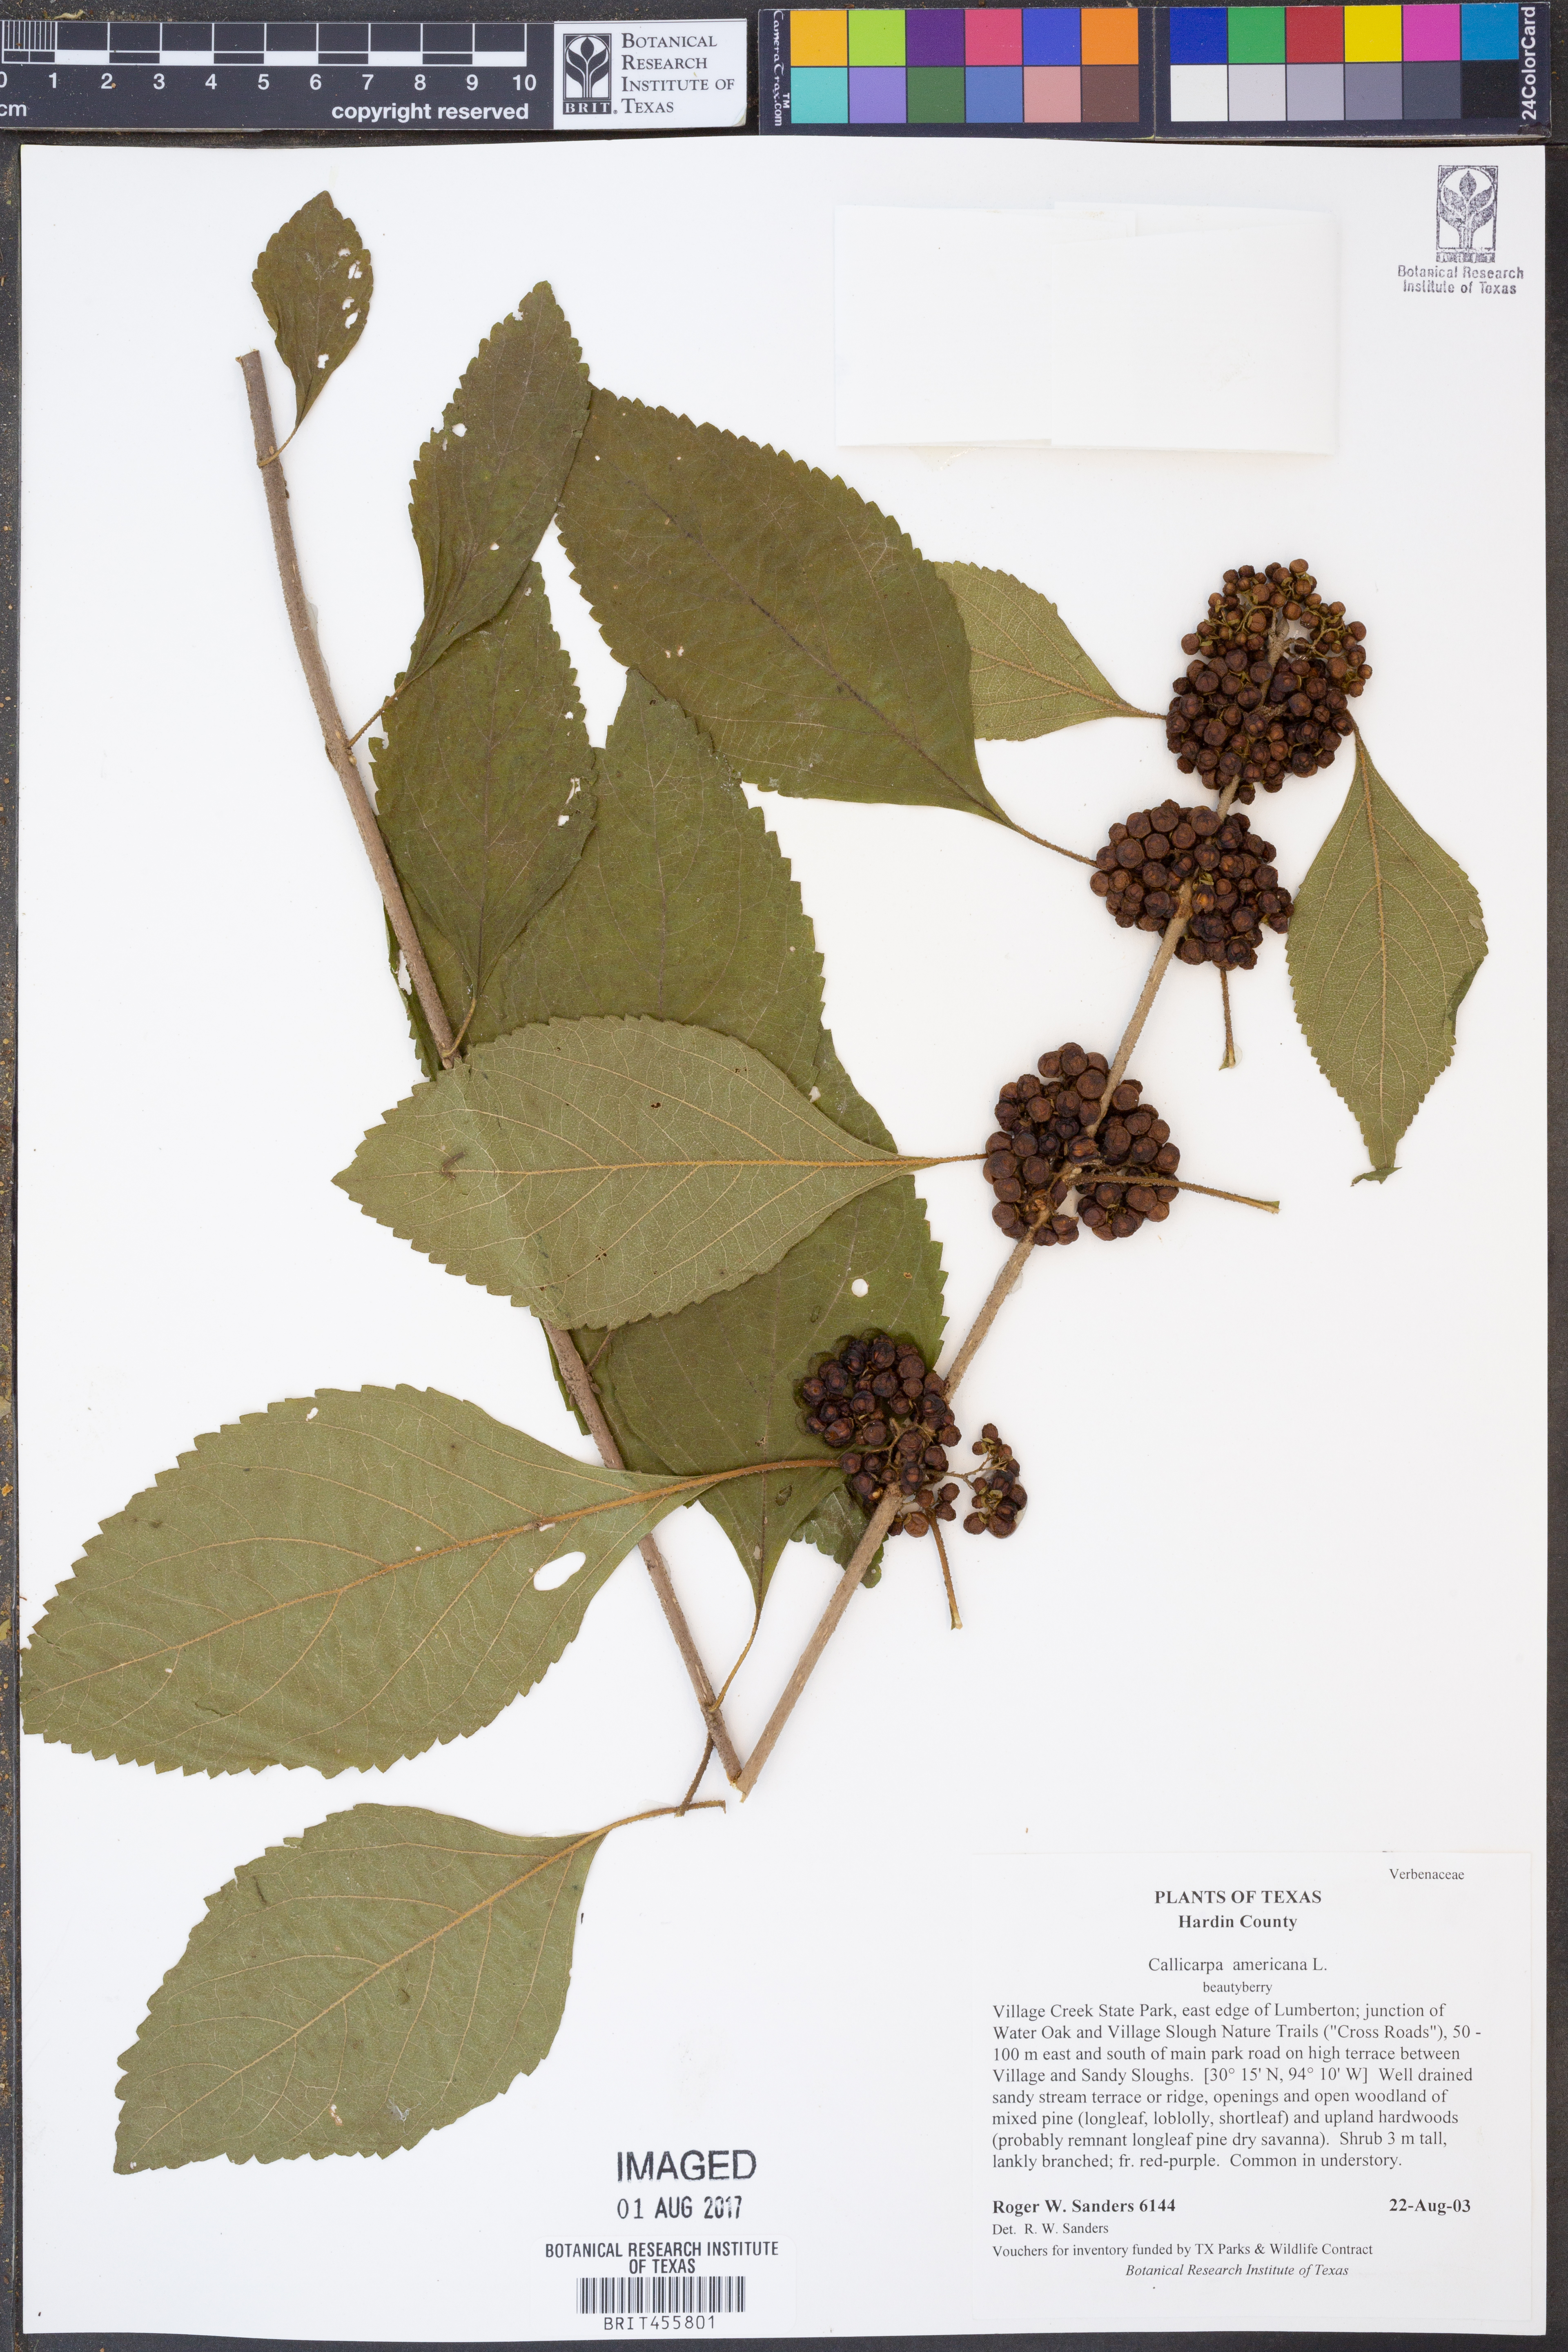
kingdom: Plantae
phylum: Tracheophyta
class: Magnoliopsida
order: Lamiales
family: Lamiaceae
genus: Callicarpa
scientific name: Callicarpa americana
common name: American beautyberry
